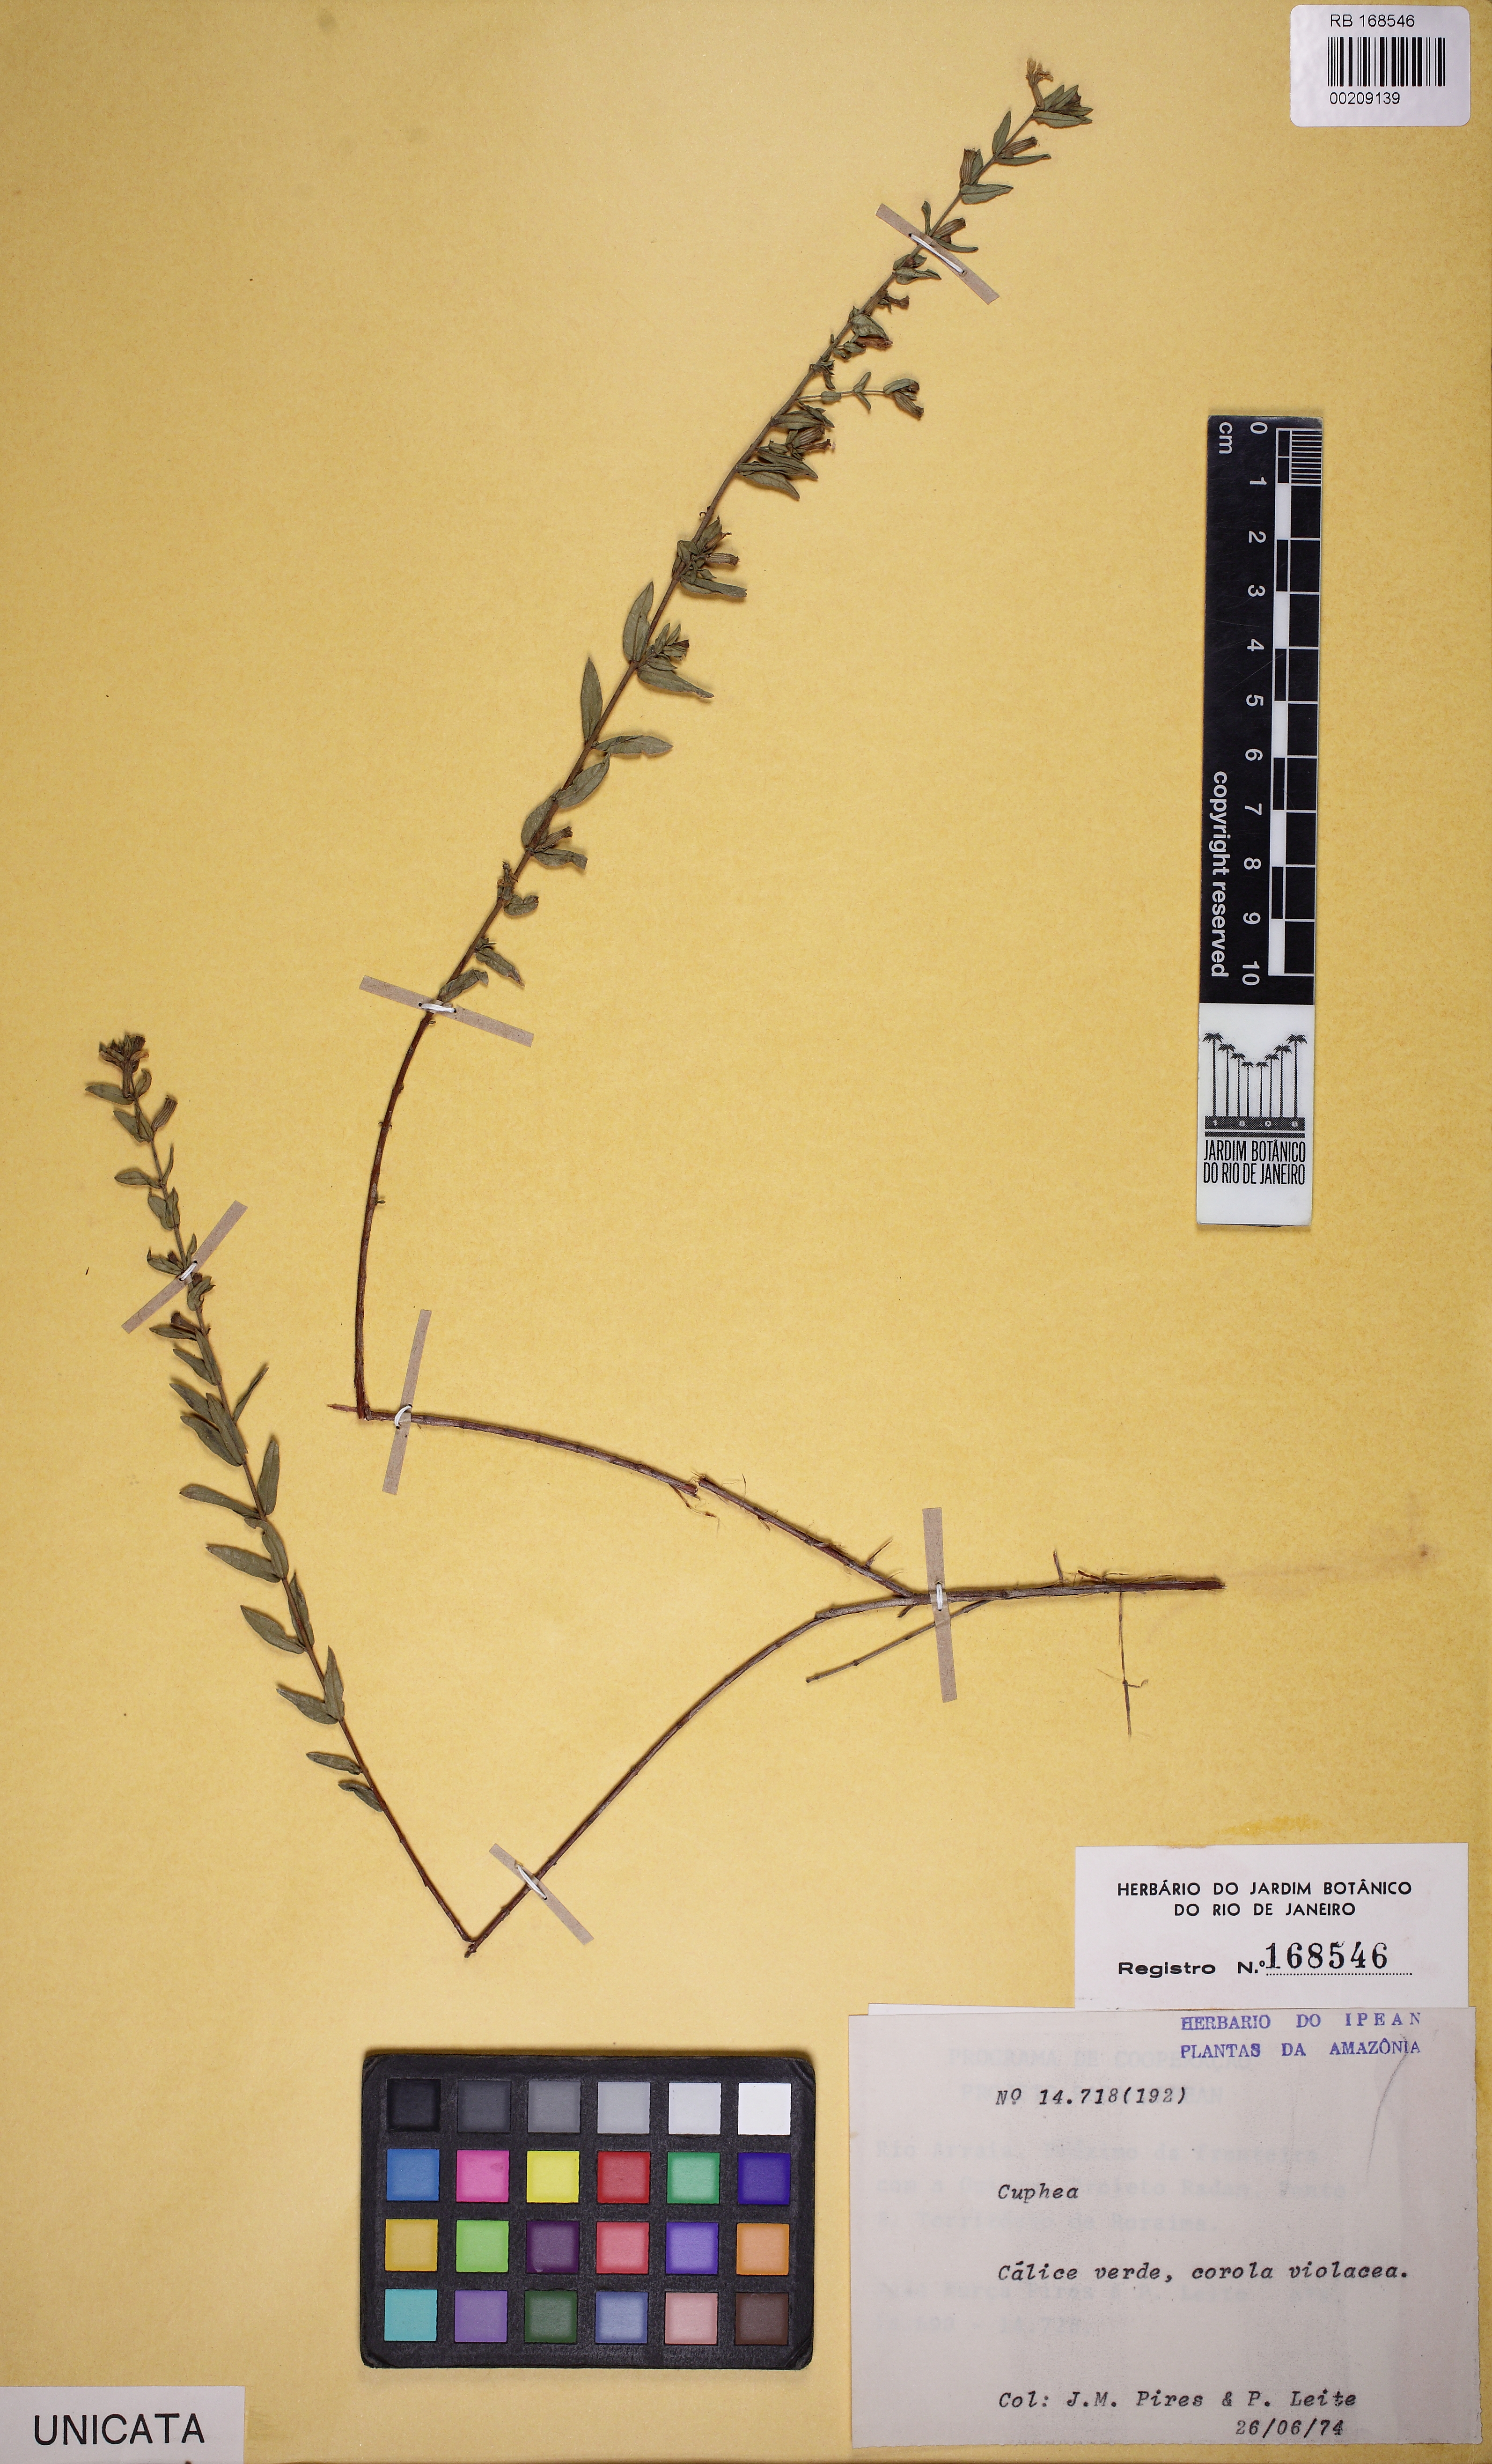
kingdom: Plantae
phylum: Tracheophyta
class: Magnoliopsida
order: Myrtales
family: Lythraceae
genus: Cuphea
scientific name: Cuphea
